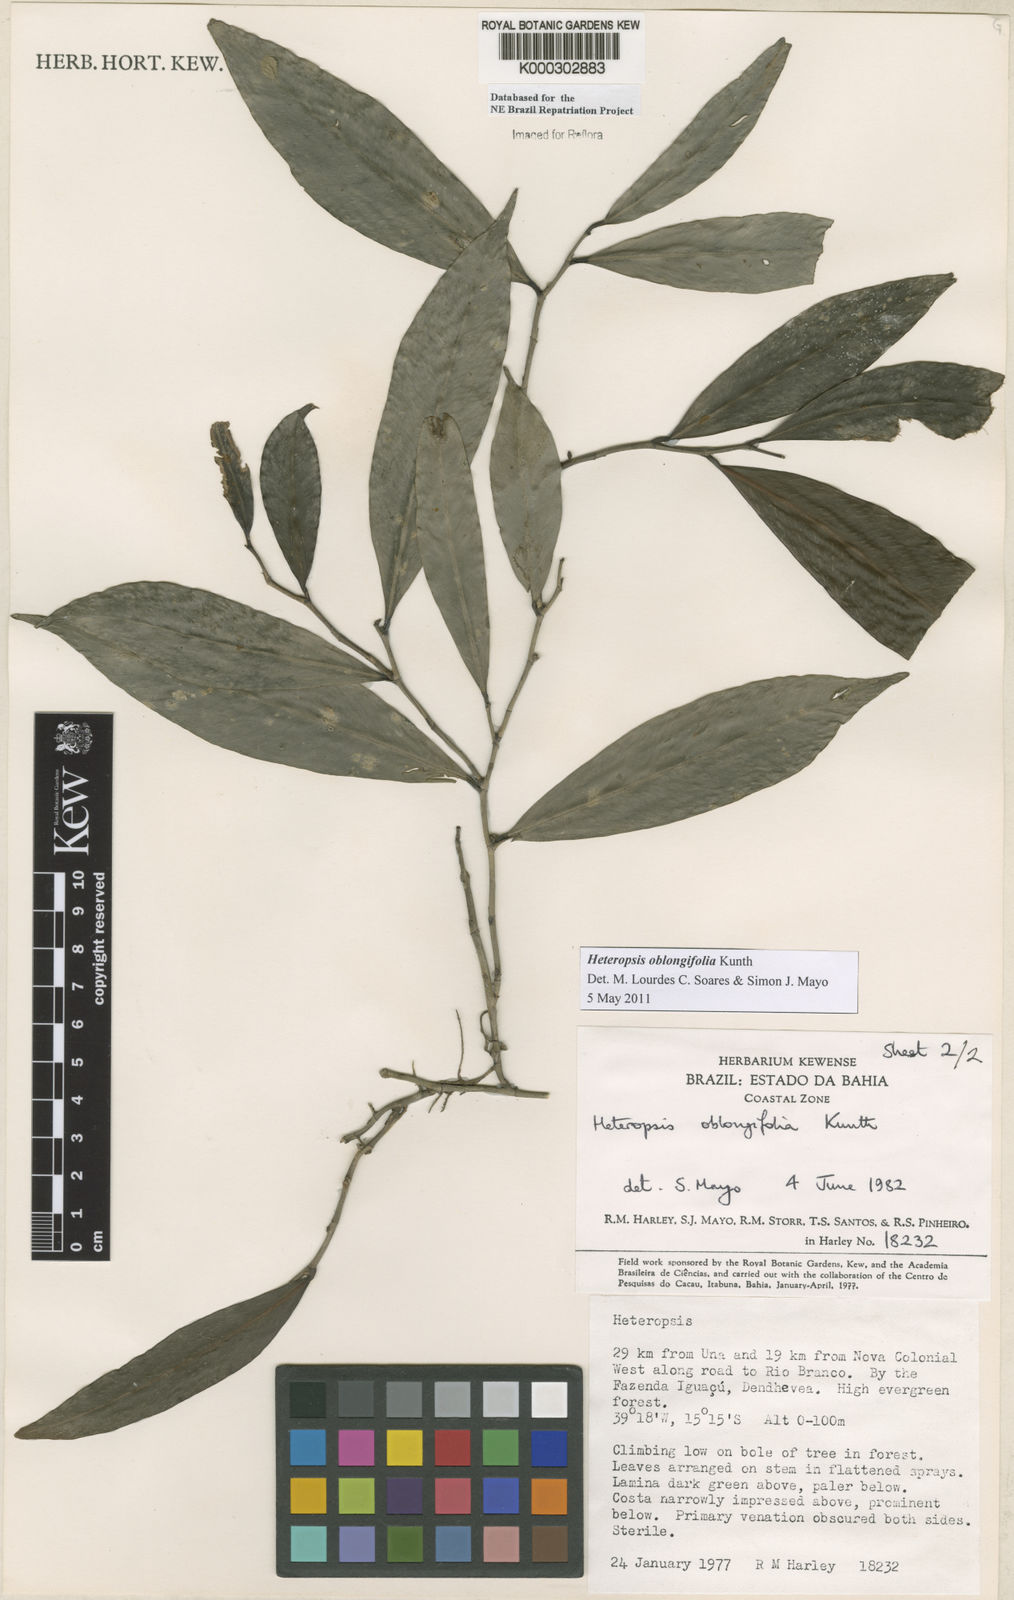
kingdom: Plantae
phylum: Tracheophyta
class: Liliopsida
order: Alismatales
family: Araceae
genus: Heteropsis
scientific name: Heteropsis oblongifolia
